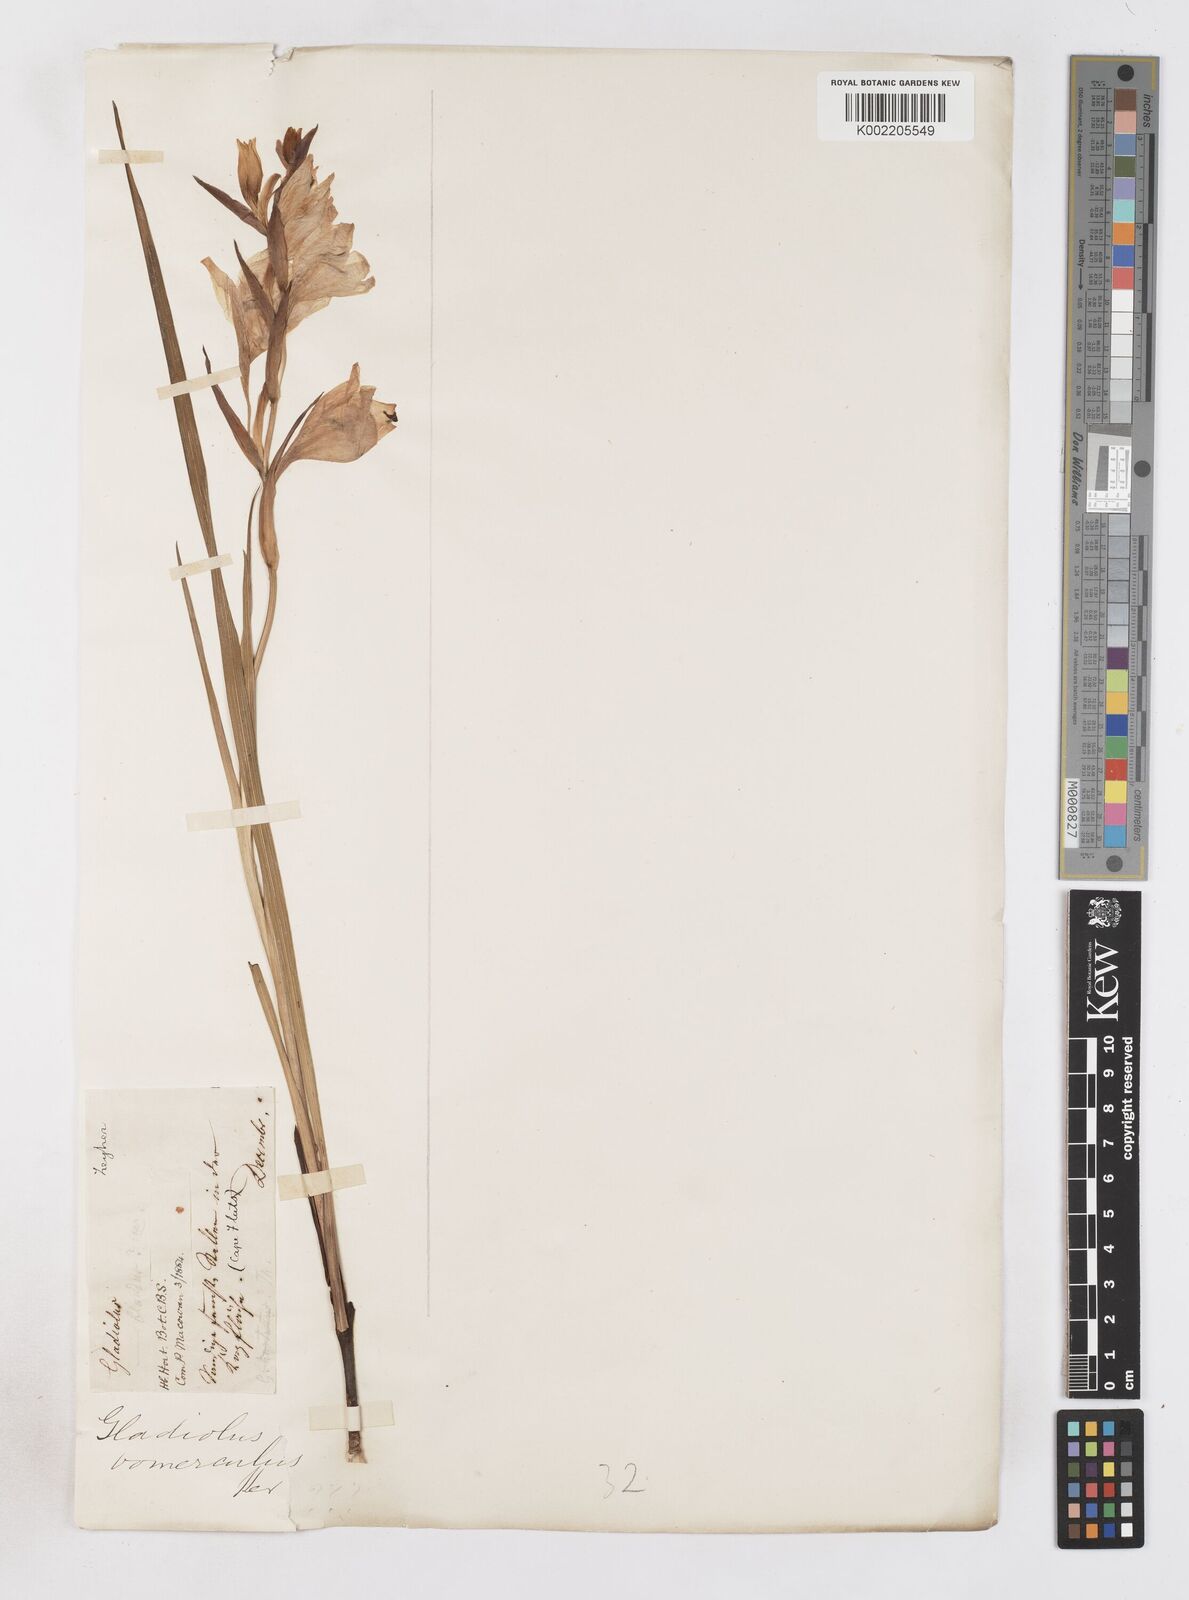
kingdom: Plantae
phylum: Tracheophyta
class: Liliopsida
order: Asparagales
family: Iridaceae
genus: Gladiolus
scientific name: Gladiolus carneus
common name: Painted-lady
